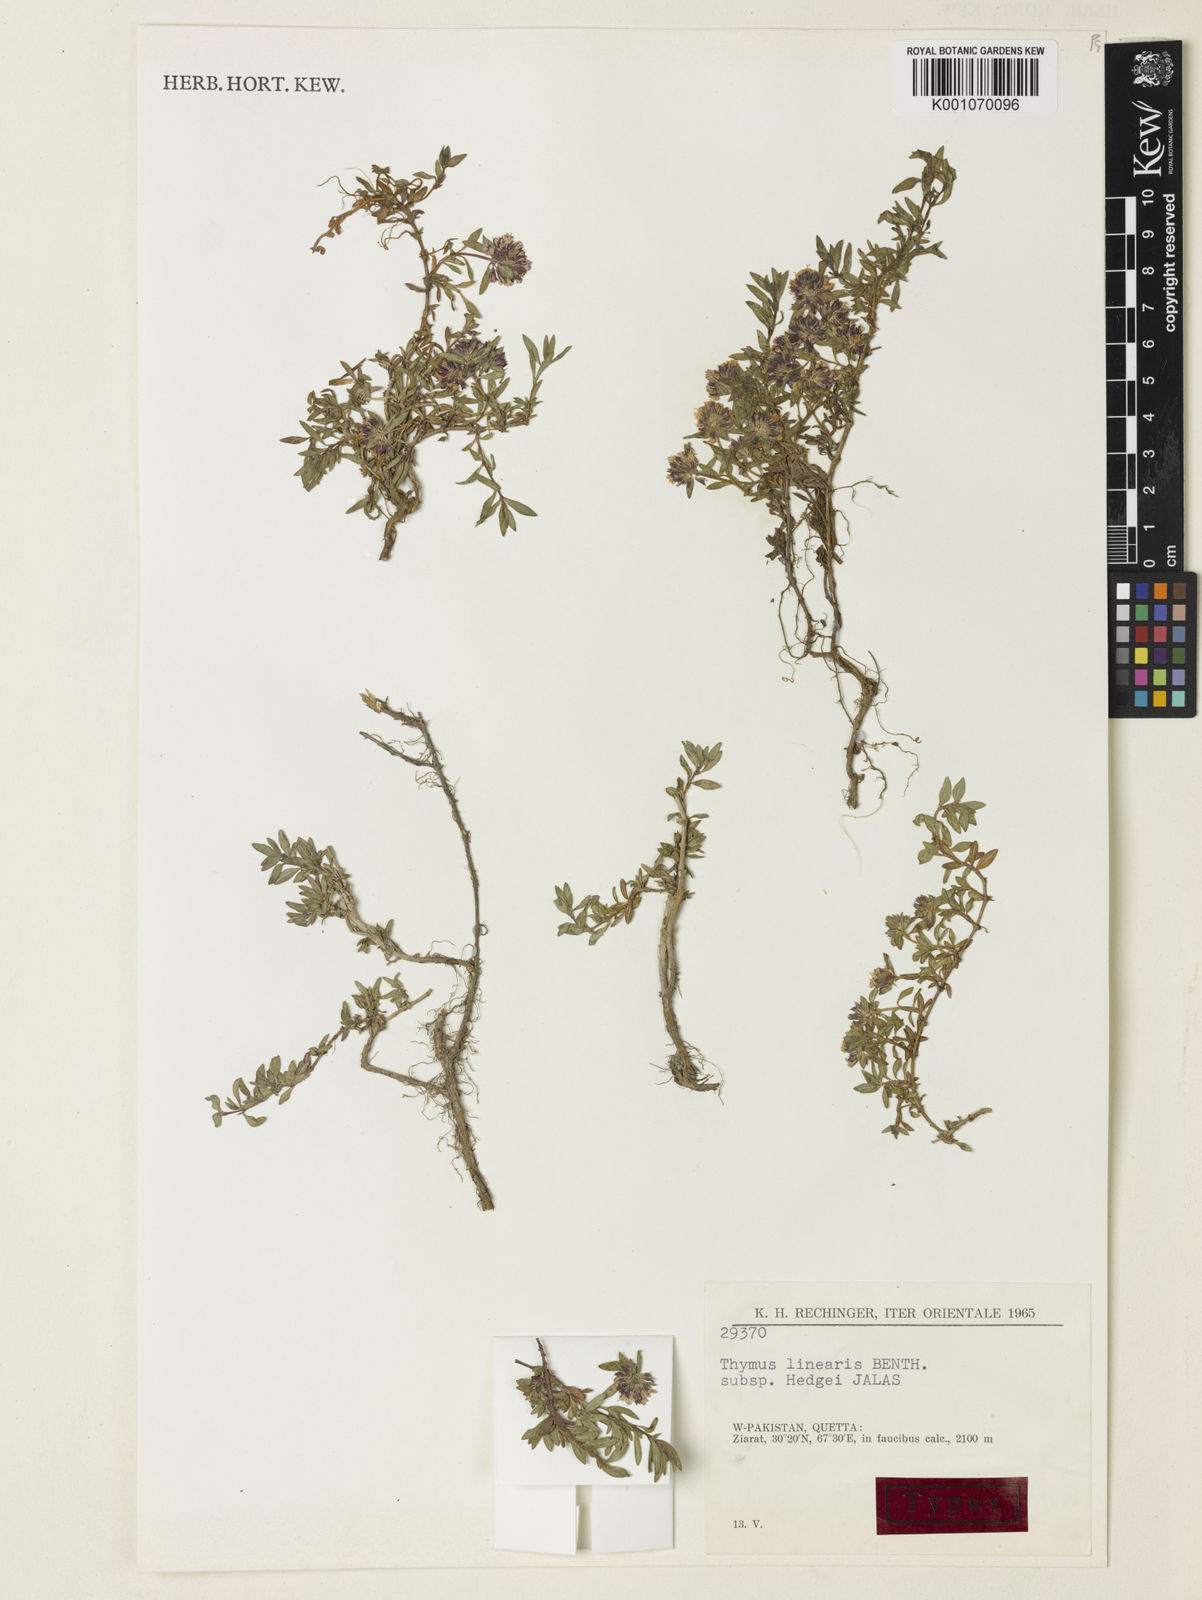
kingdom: Plantae
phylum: Tracheophyta
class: Magnoliopsida
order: Lamiales
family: Lamiaceae
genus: Thymus
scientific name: Thymus linearis
